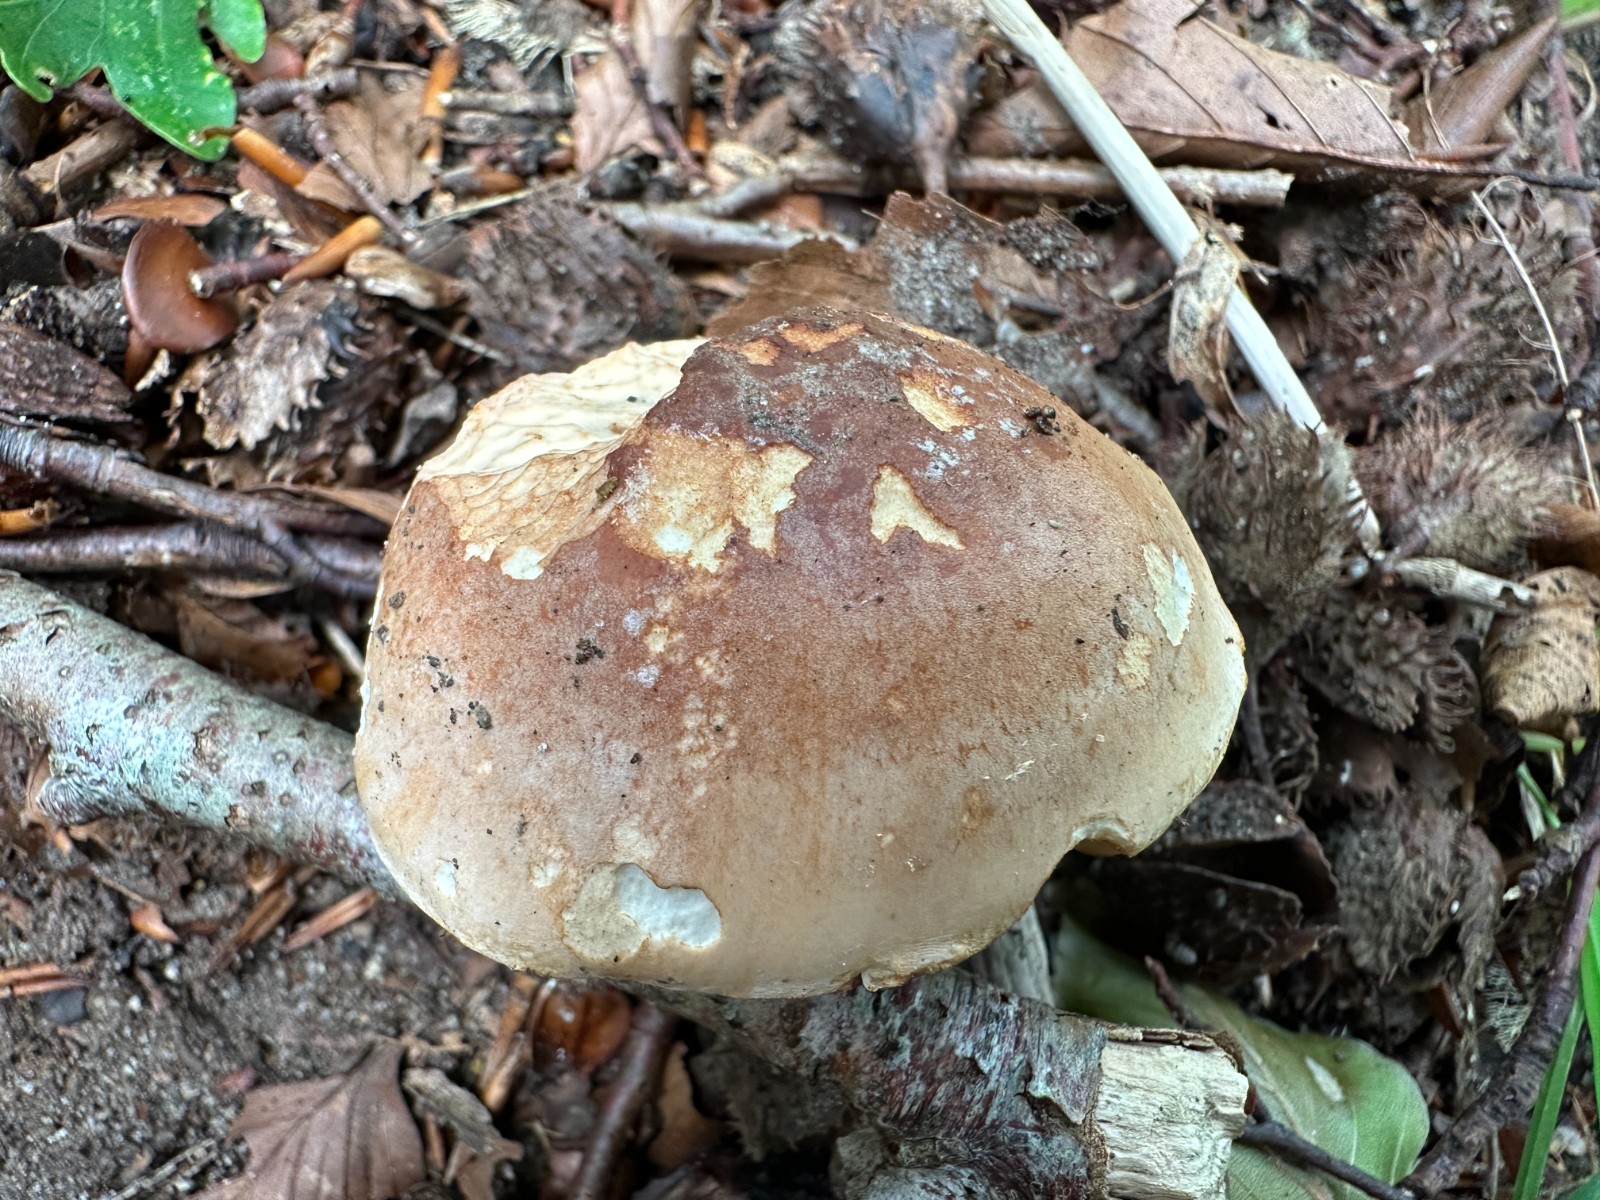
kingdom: Fungi
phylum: Basidiomycota
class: Agaricomycetes
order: Agaricales
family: Hymenogastraceae
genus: Hebeloma
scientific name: Hebeloma sinapizans
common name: ræddike-tåreblad
